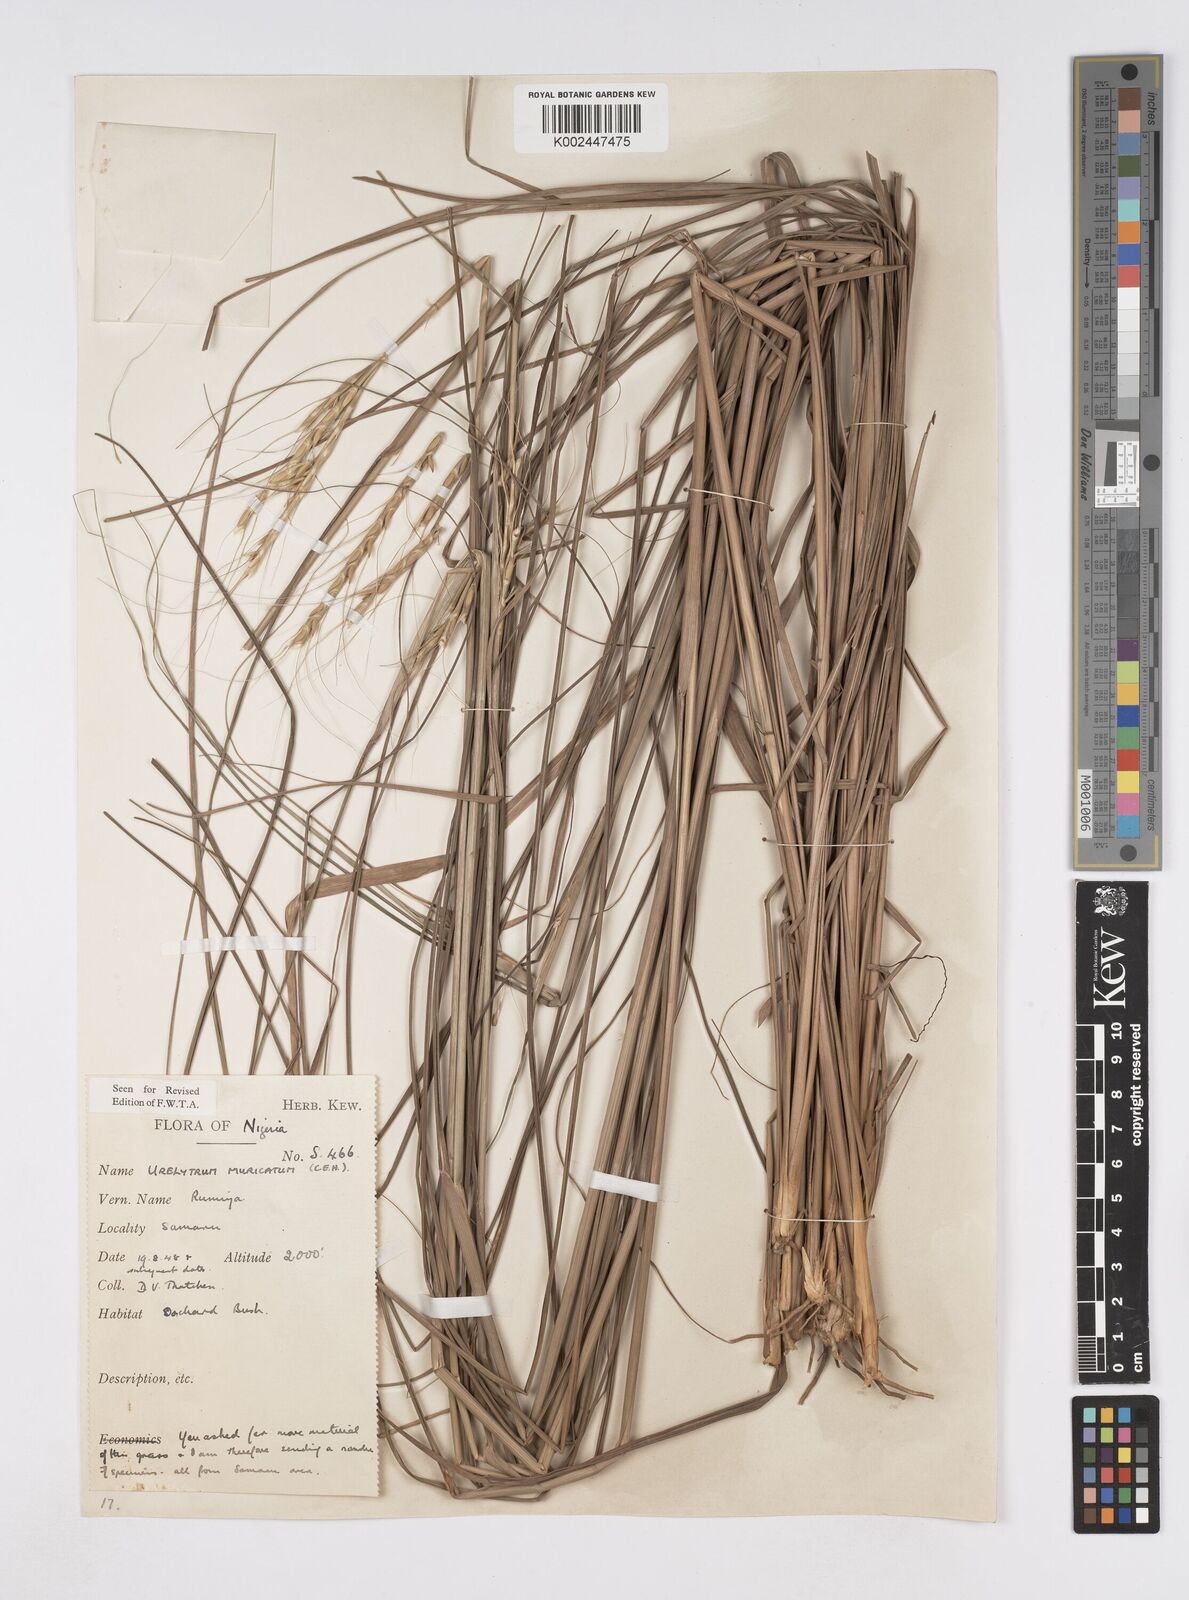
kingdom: Plantae
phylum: Tracheophyta
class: Liliopsida
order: Poales
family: Poaceae
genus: Urelytrum
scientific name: Urelytrum muricatum
